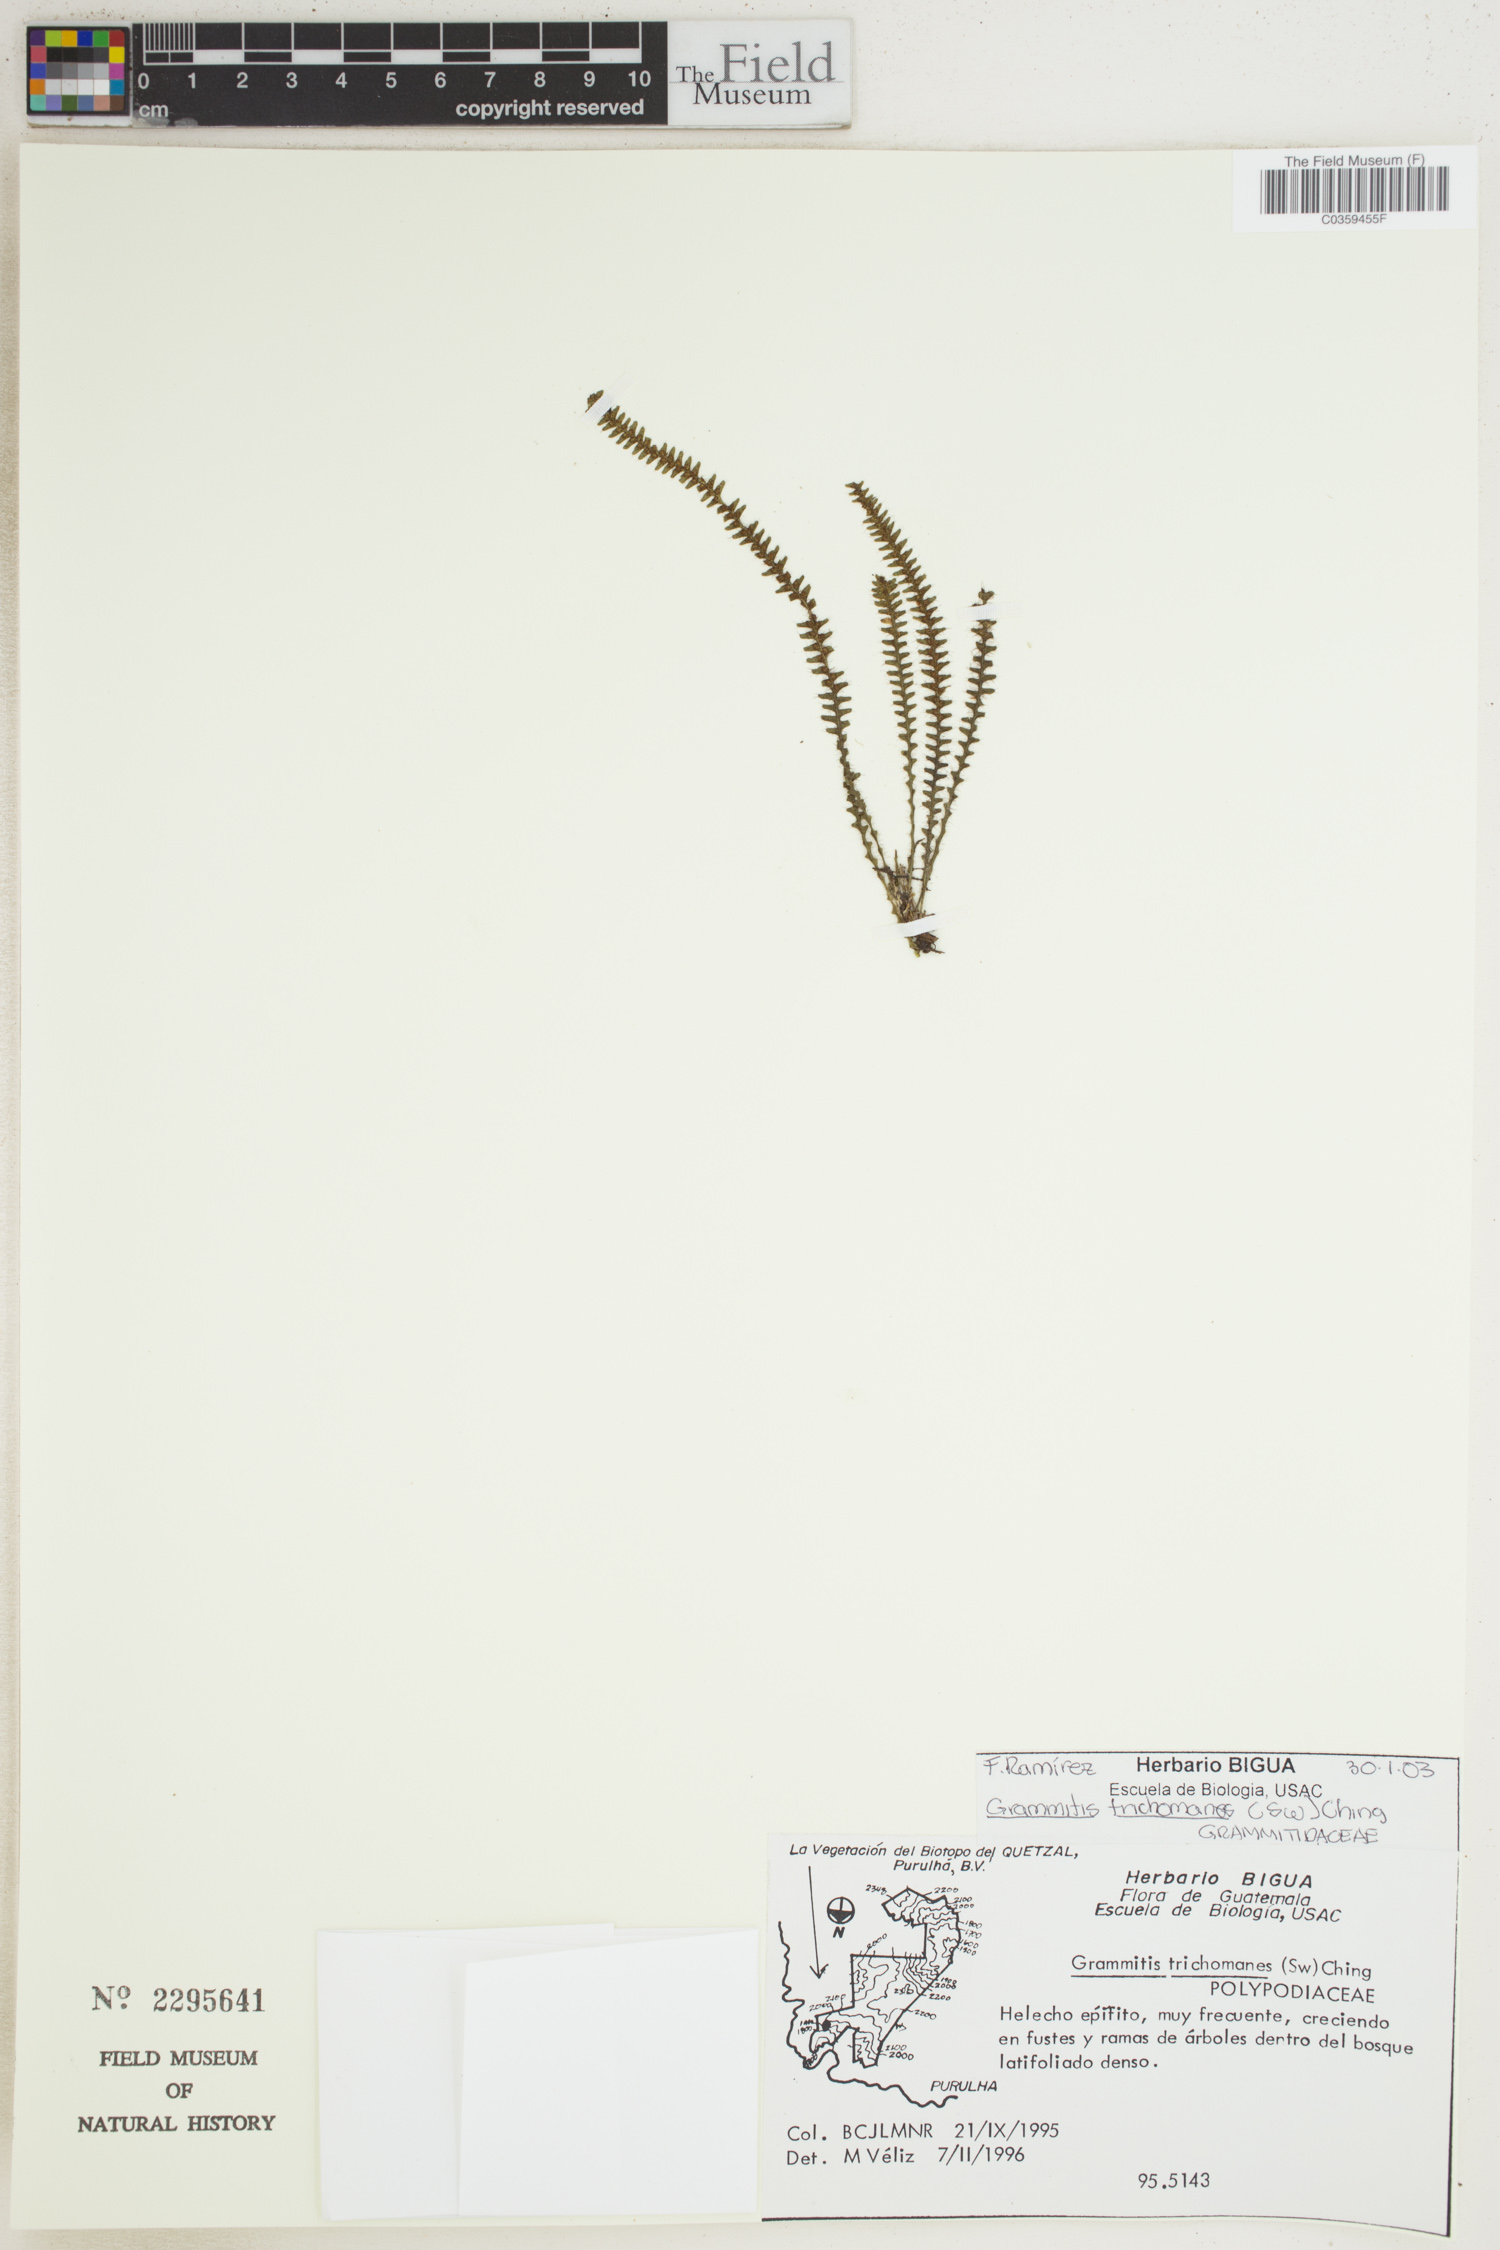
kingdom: Plantae
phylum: Tracheophyta
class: Polypodiopsida
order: Polypodiales
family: Polypodiaceae
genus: Moranopteris
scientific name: Moranopteris trichomanoides
